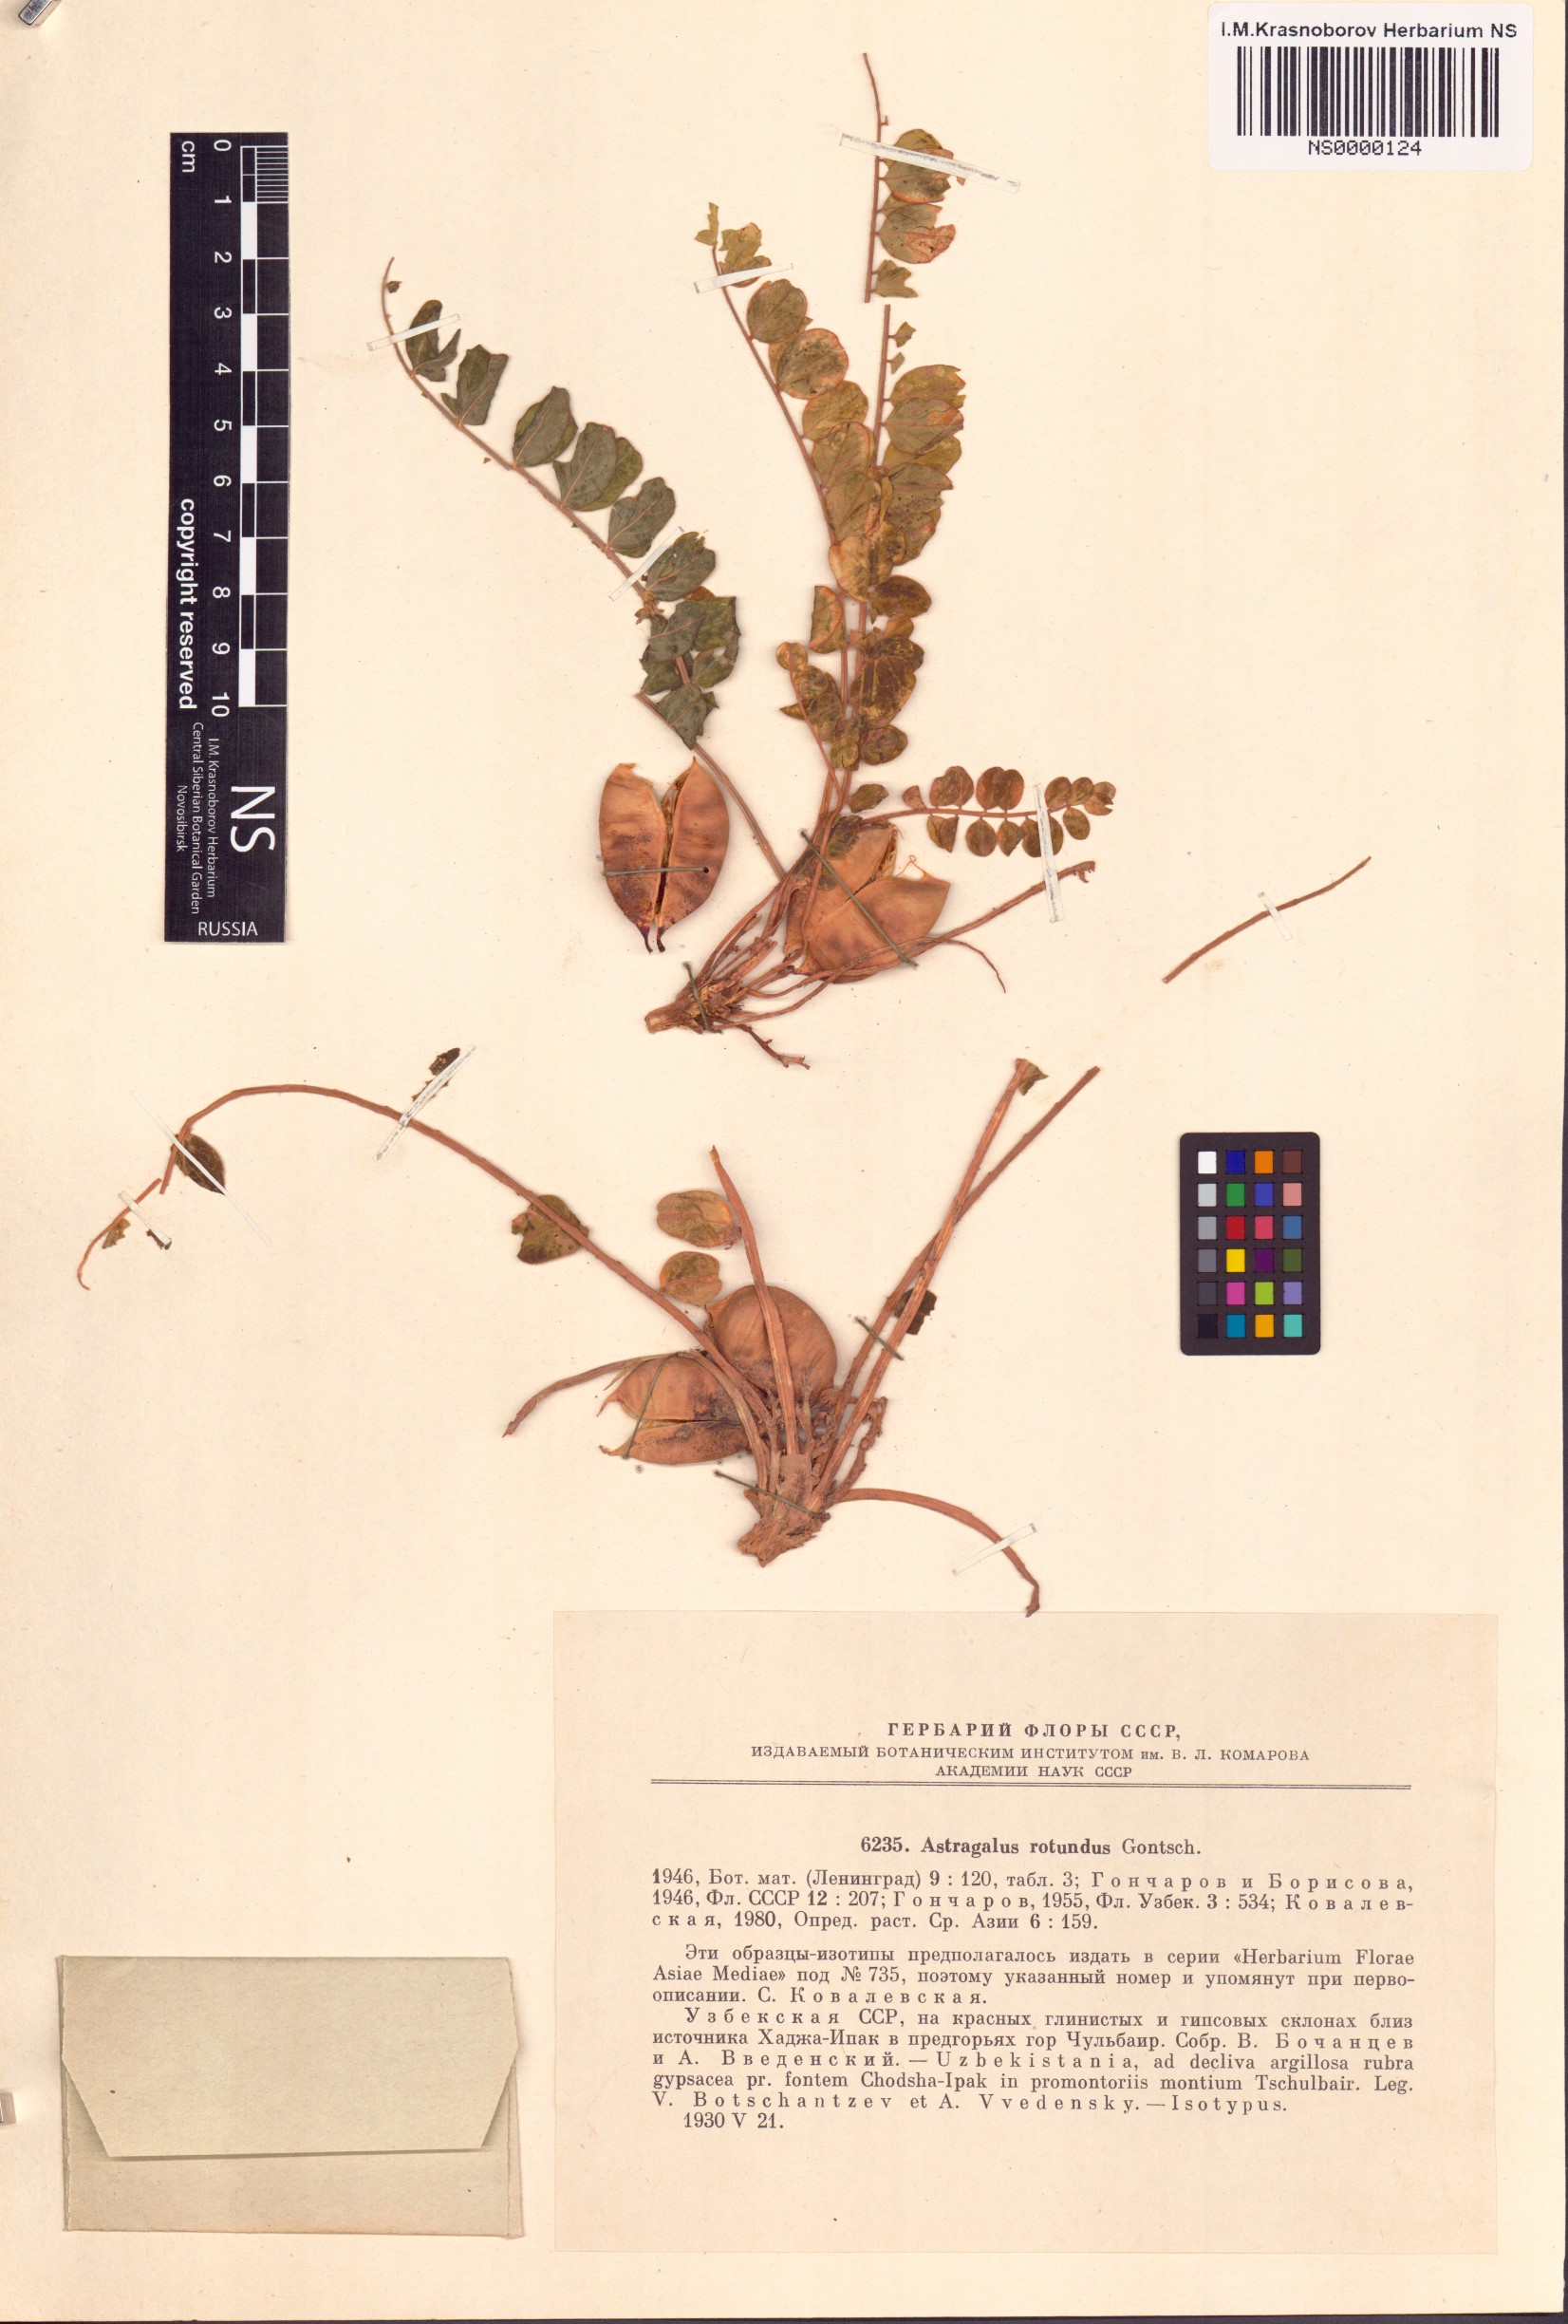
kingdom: Plantae
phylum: Tracheophyta
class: Magnoliopsida
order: Fabales
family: Fabaceae
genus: Astragalus
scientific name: Astragalus rotundus
